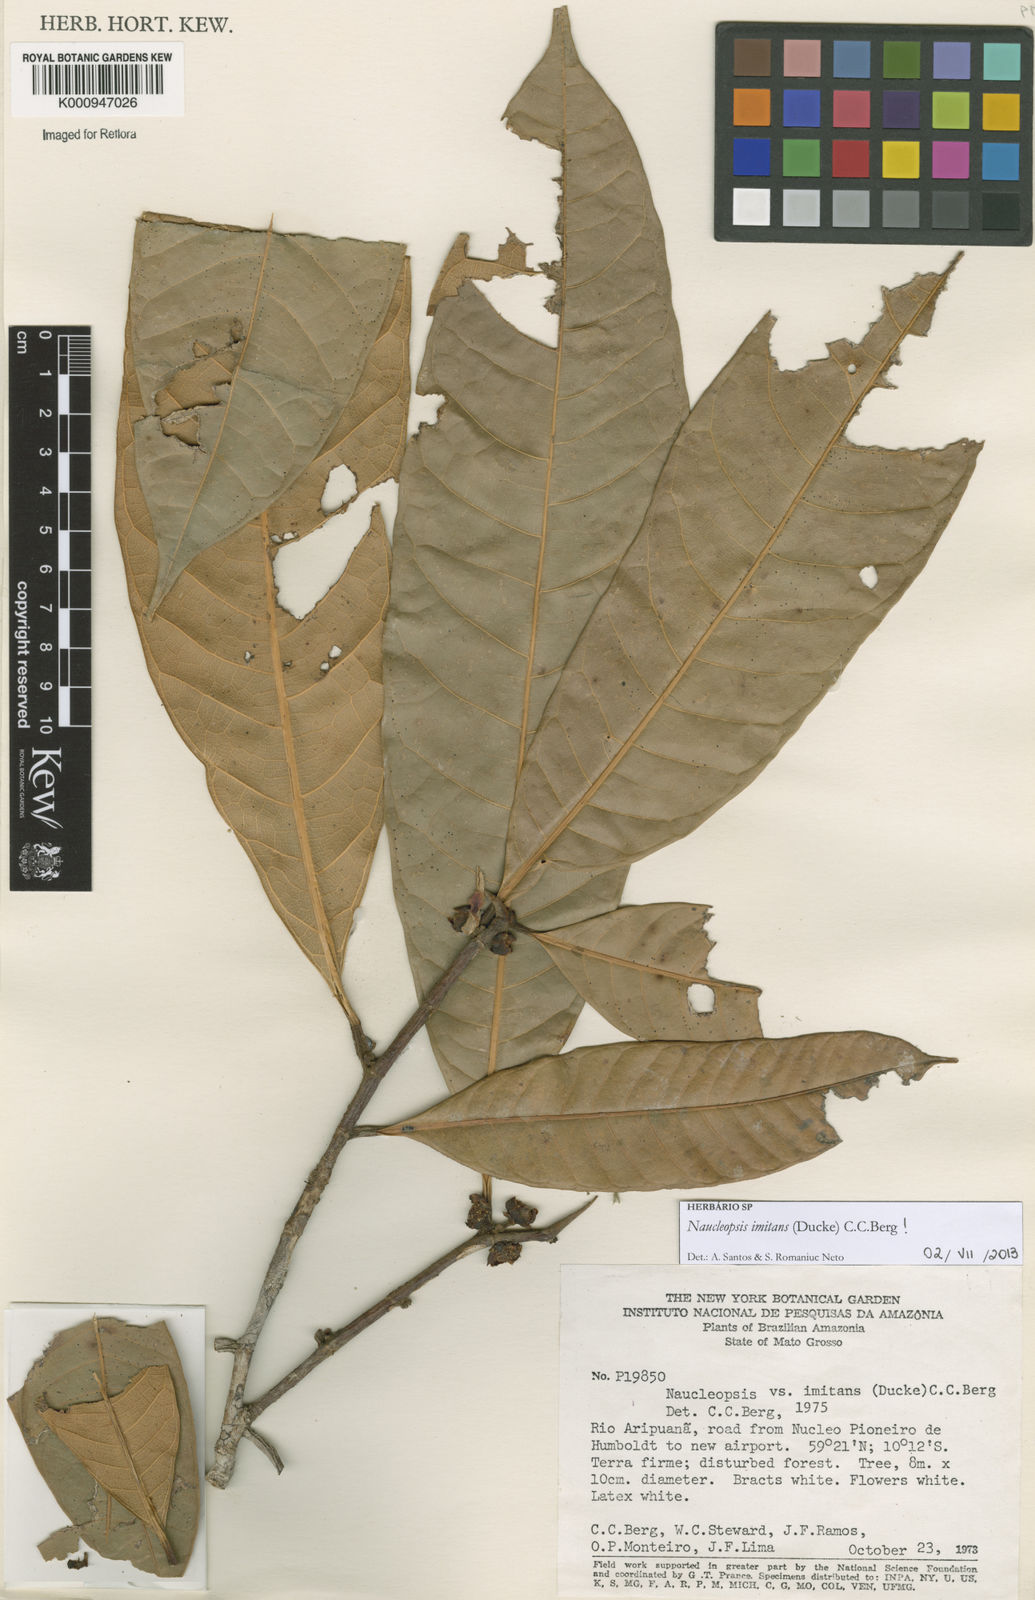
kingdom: Plantae
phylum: Tracheophyta
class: Magnoliopsida
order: Rosales
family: Moraceae
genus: Naucleopsis
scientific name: Naucleopsis imitans
